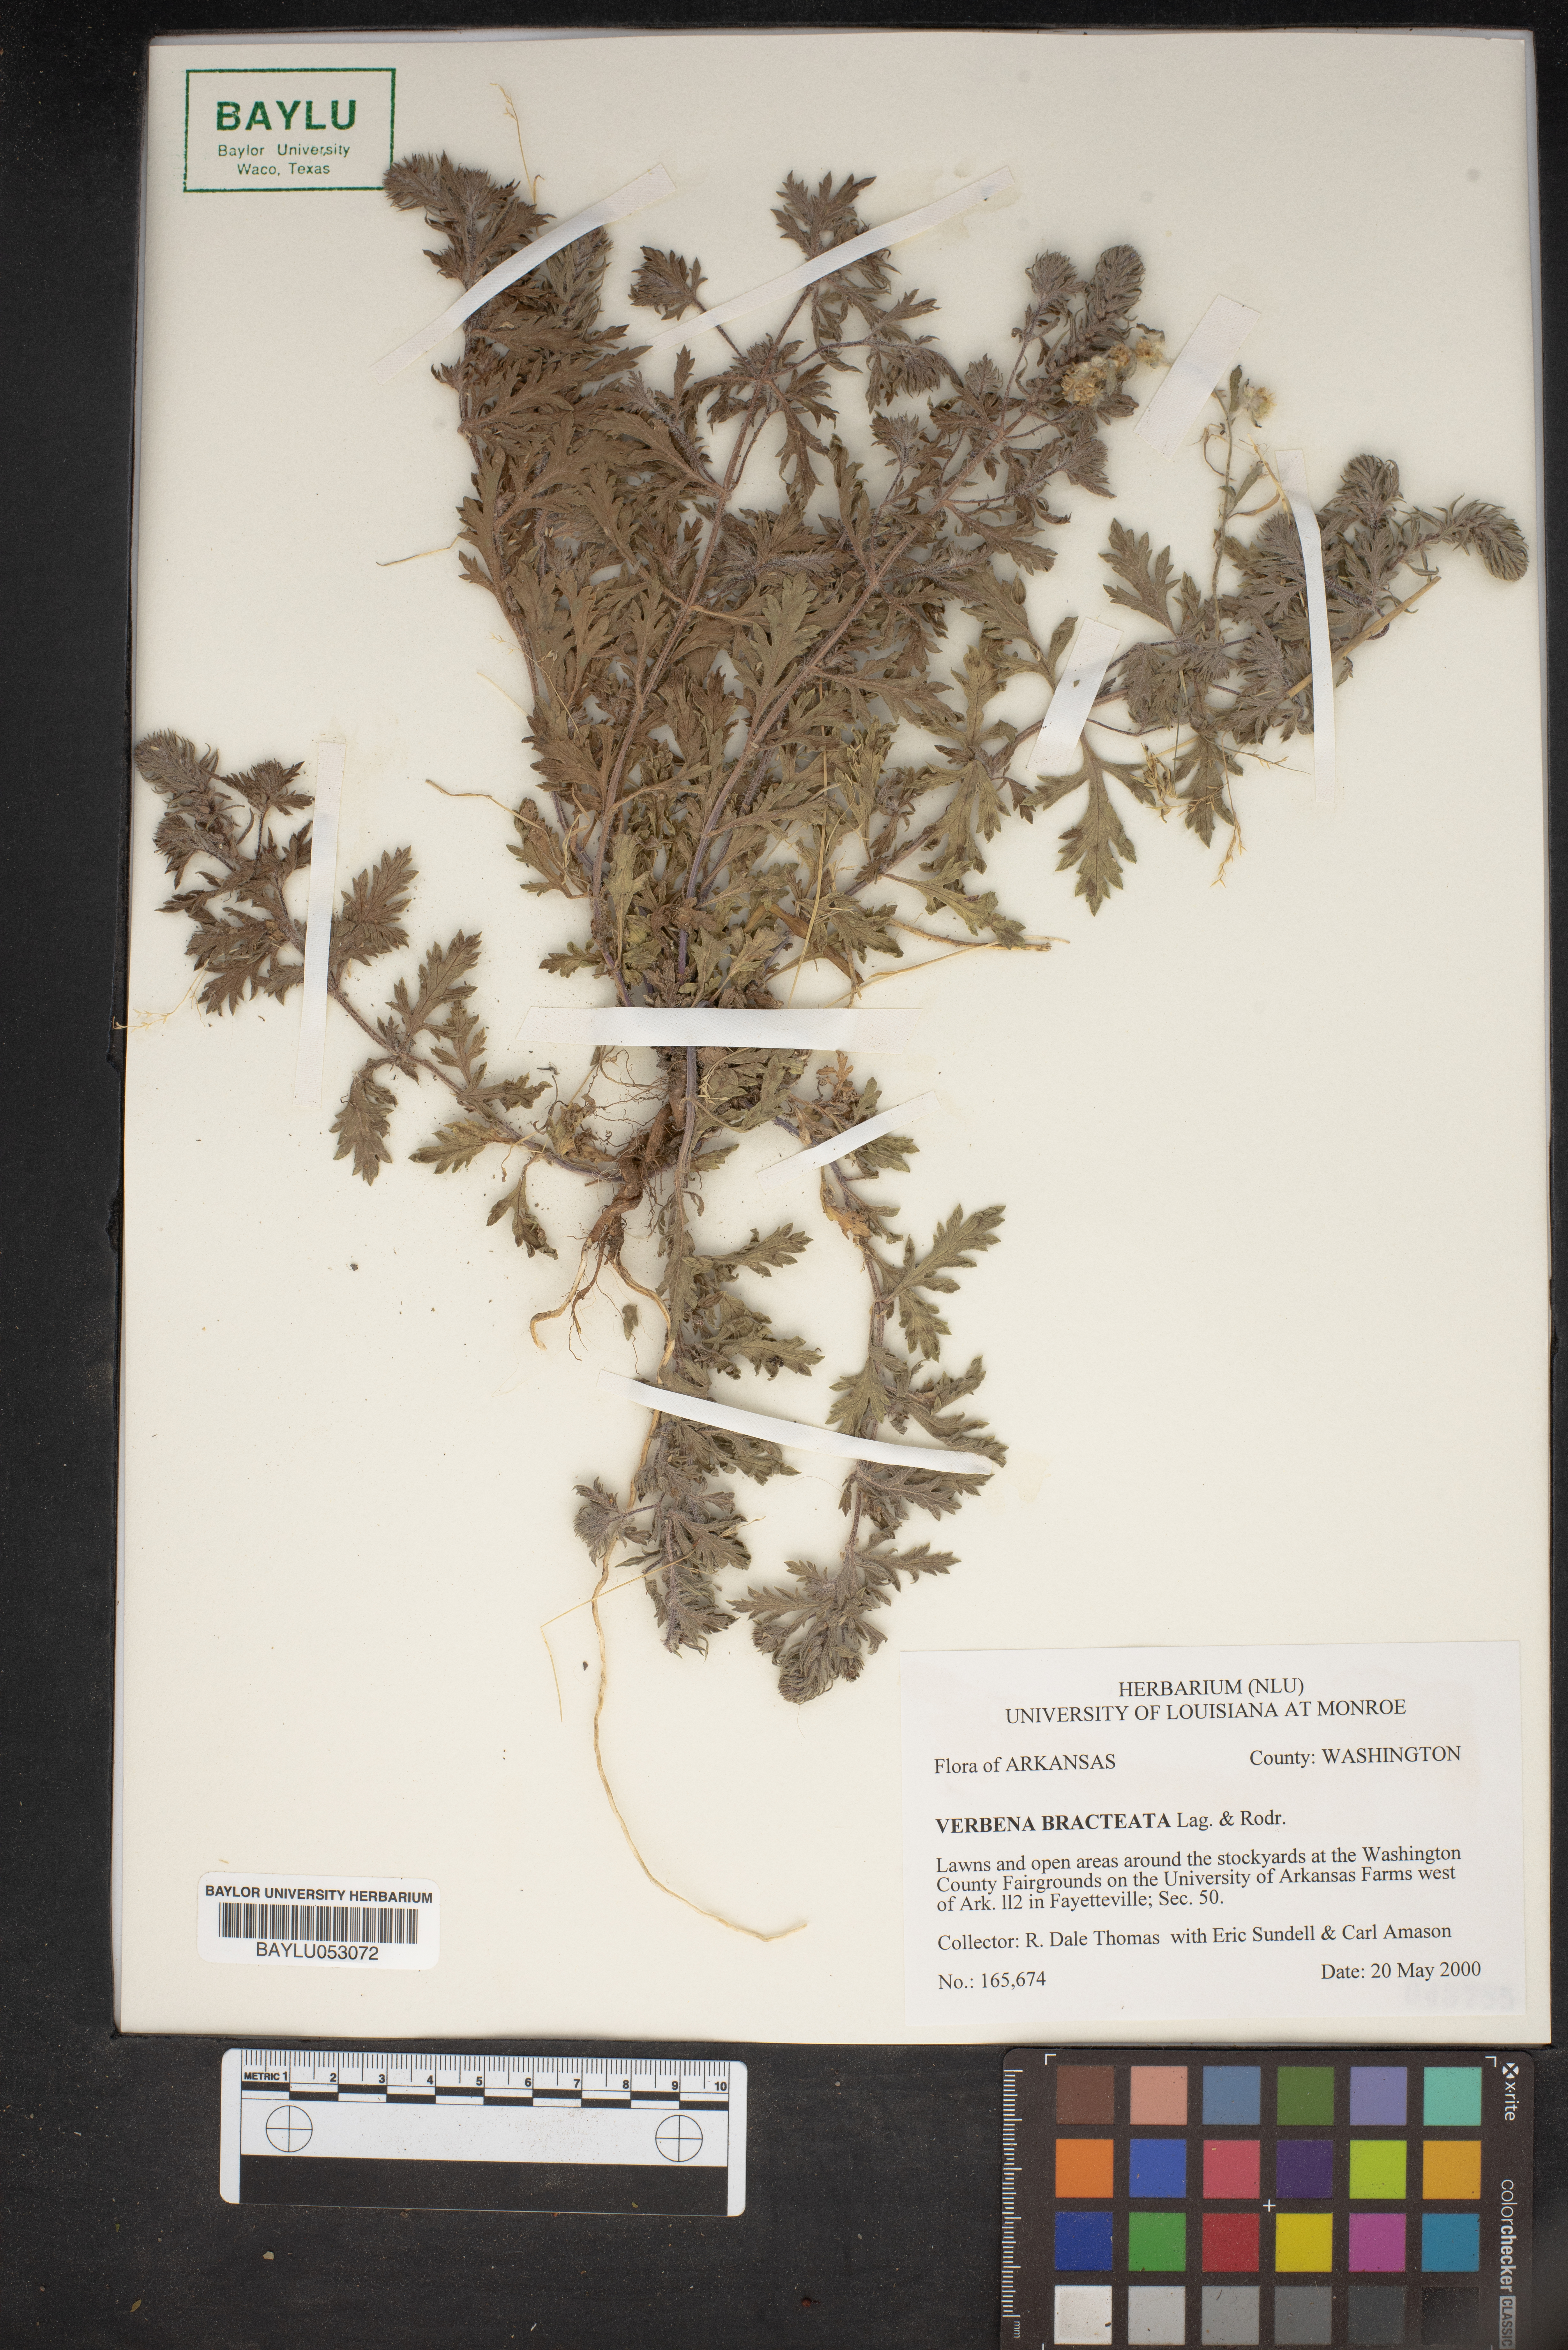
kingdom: Plantae
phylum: Tracheophyta
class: Magnoliopsida
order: Lamiales
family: Verbenaceae
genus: Verbena
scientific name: Verbena bracteata
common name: Bracted vervain
